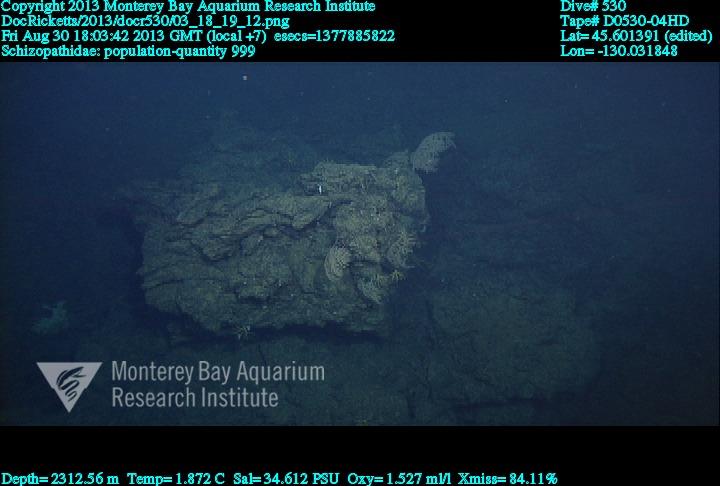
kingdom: Animalia
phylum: Cnidaria
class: Anthozoa
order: Antipatharia
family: Schizopathidae
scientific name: Schizopathidae
